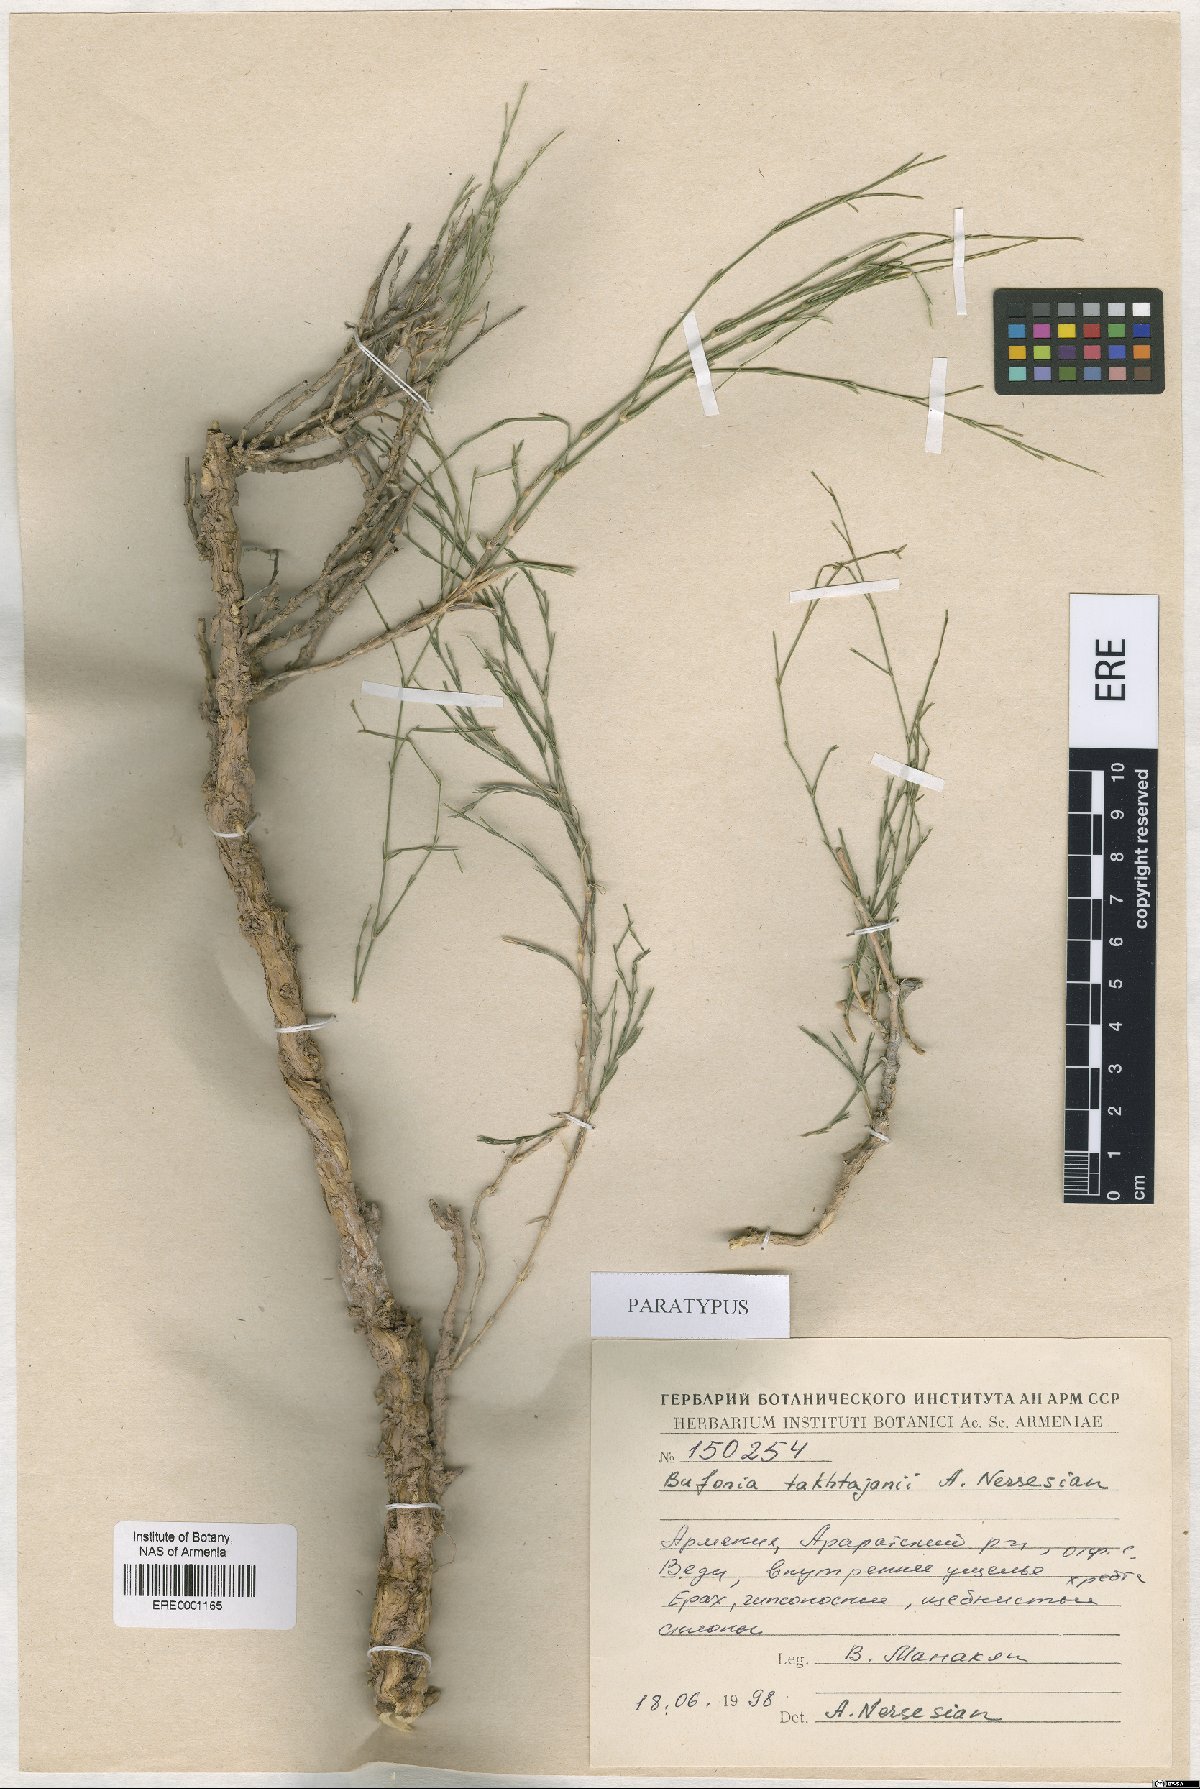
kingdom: Plantae
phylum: Tracheophyta
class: Magnoliopsida
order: Caryophyllales
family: Caryophyllaceae
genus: Bufonia
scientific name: Bufonia takhtajanii
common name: Takhtadjyan's bufonia
